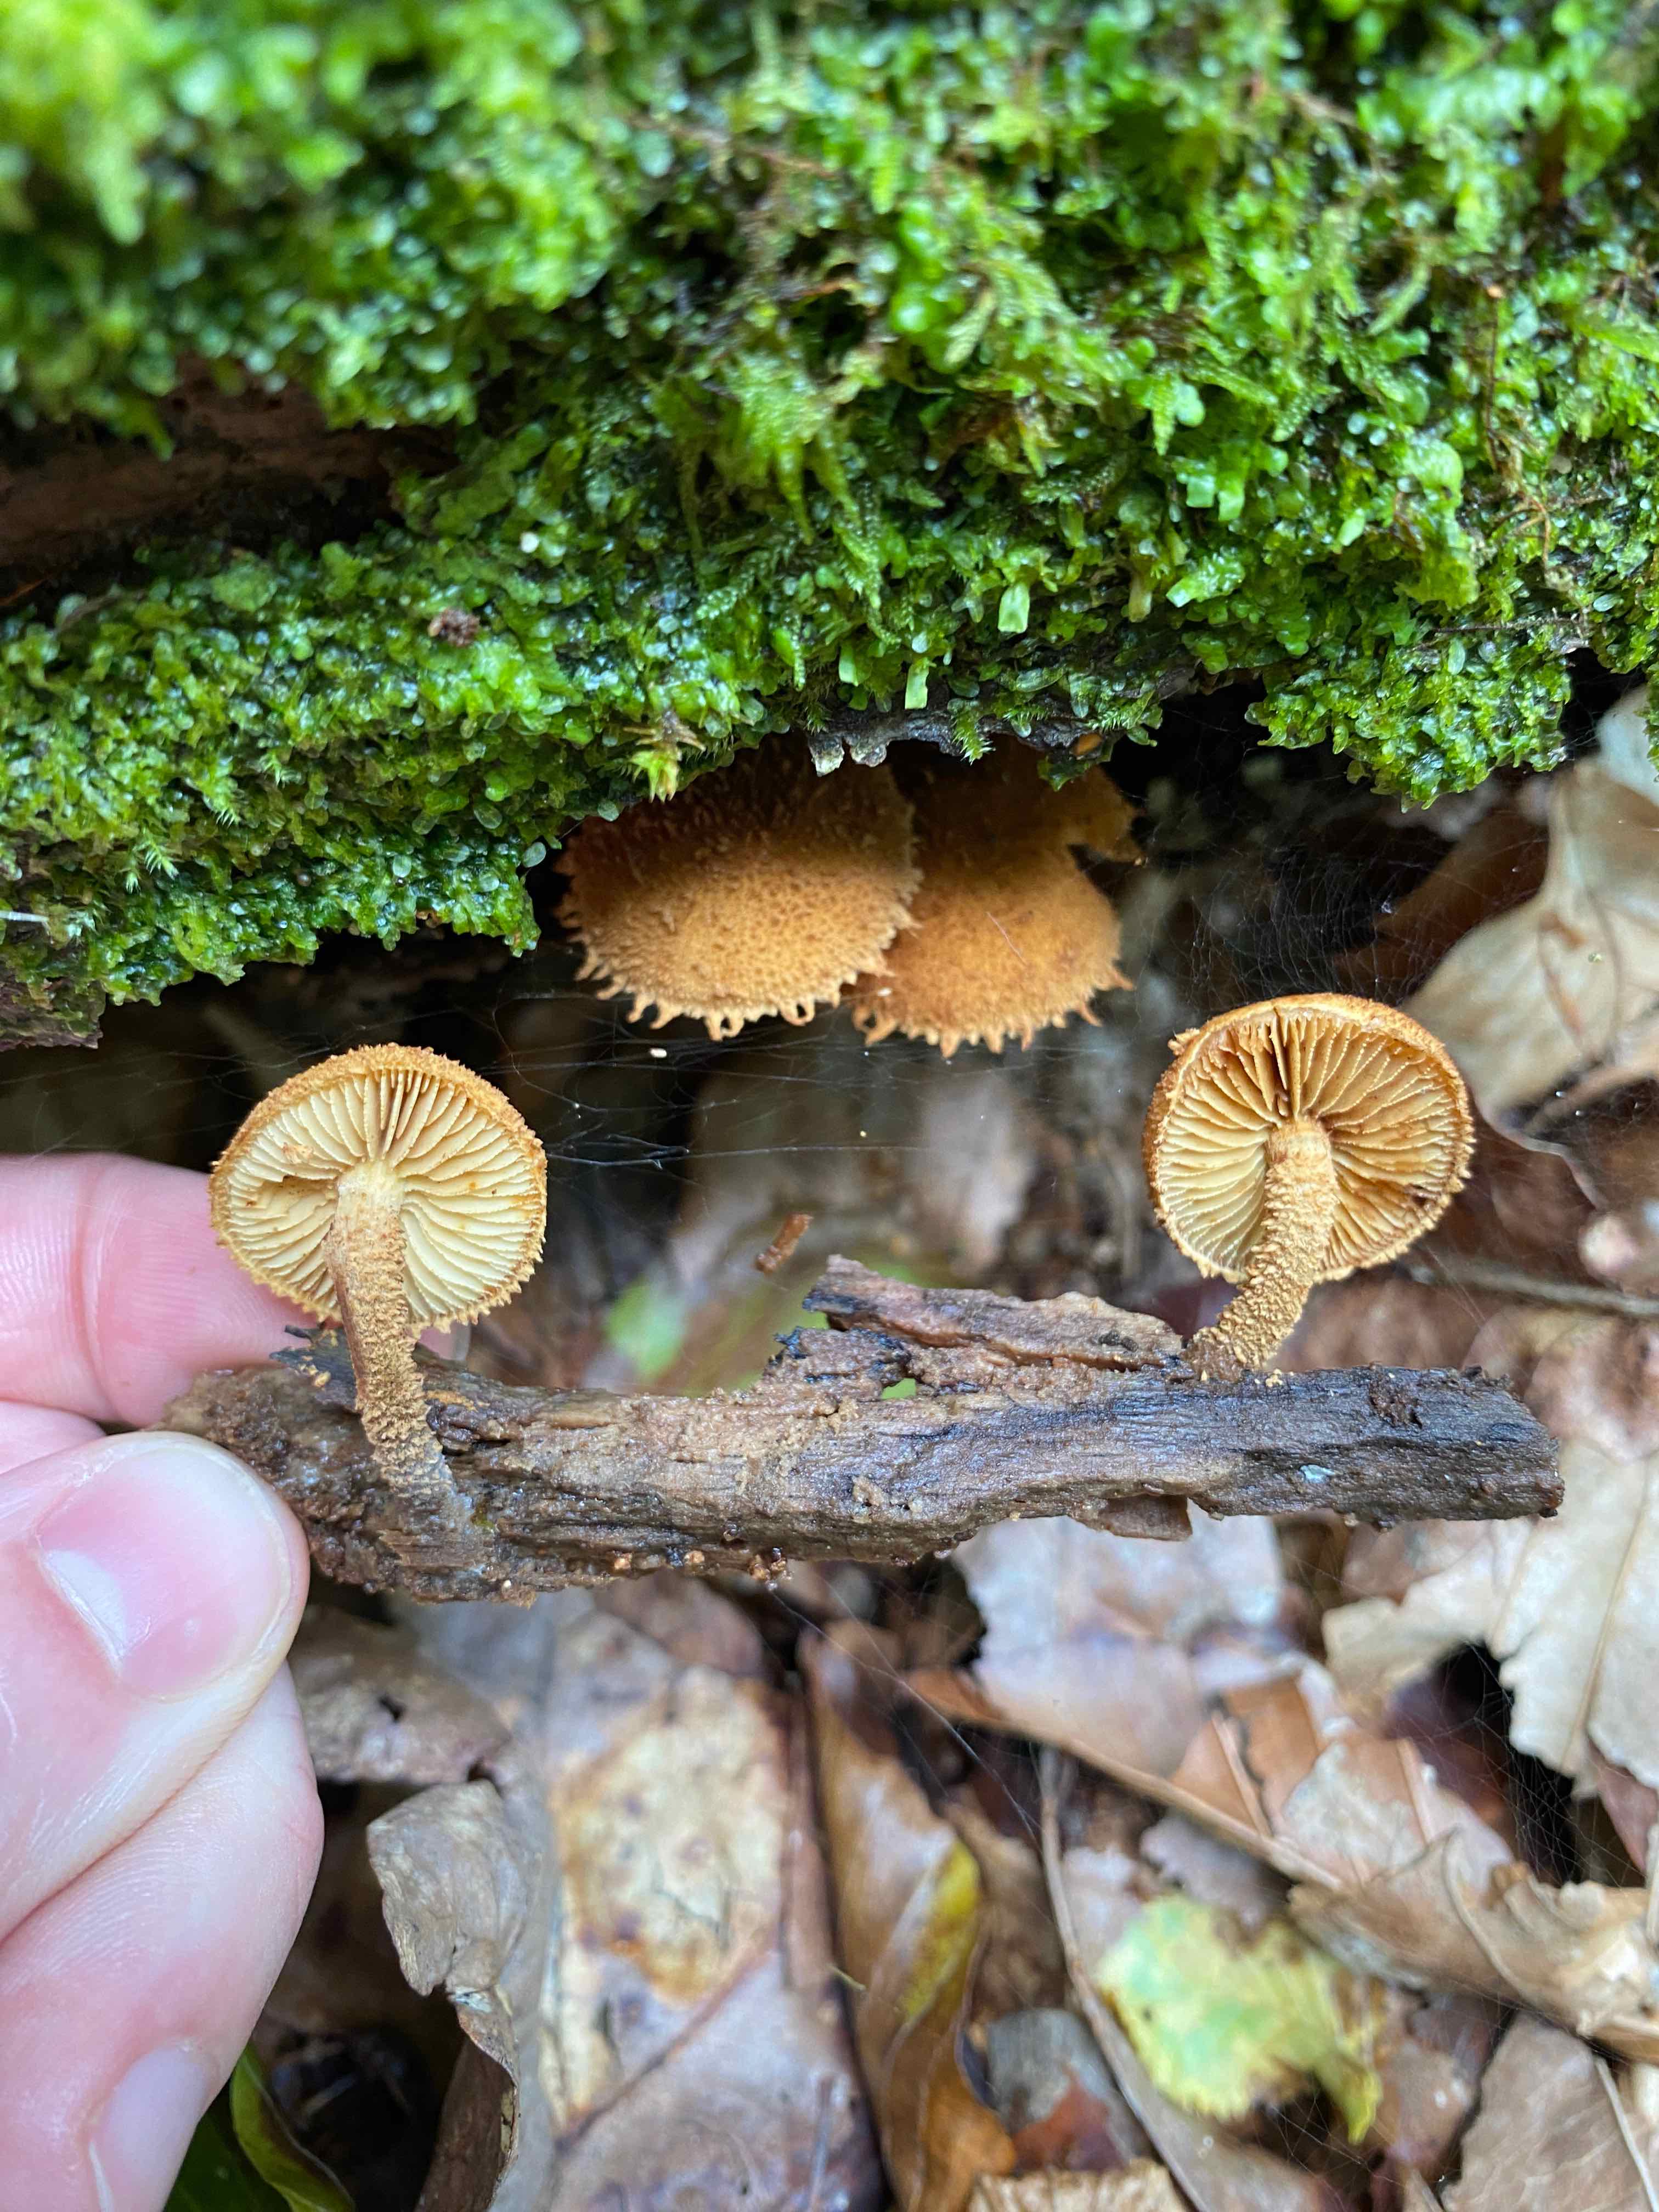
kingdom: Fungi
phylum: Basidiomycota
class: Agaricomycetes
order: Agaricales
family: Tubariaceae
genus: Flammulaster
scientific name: Flammulaster muricatus
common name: pigget grynskælhat
